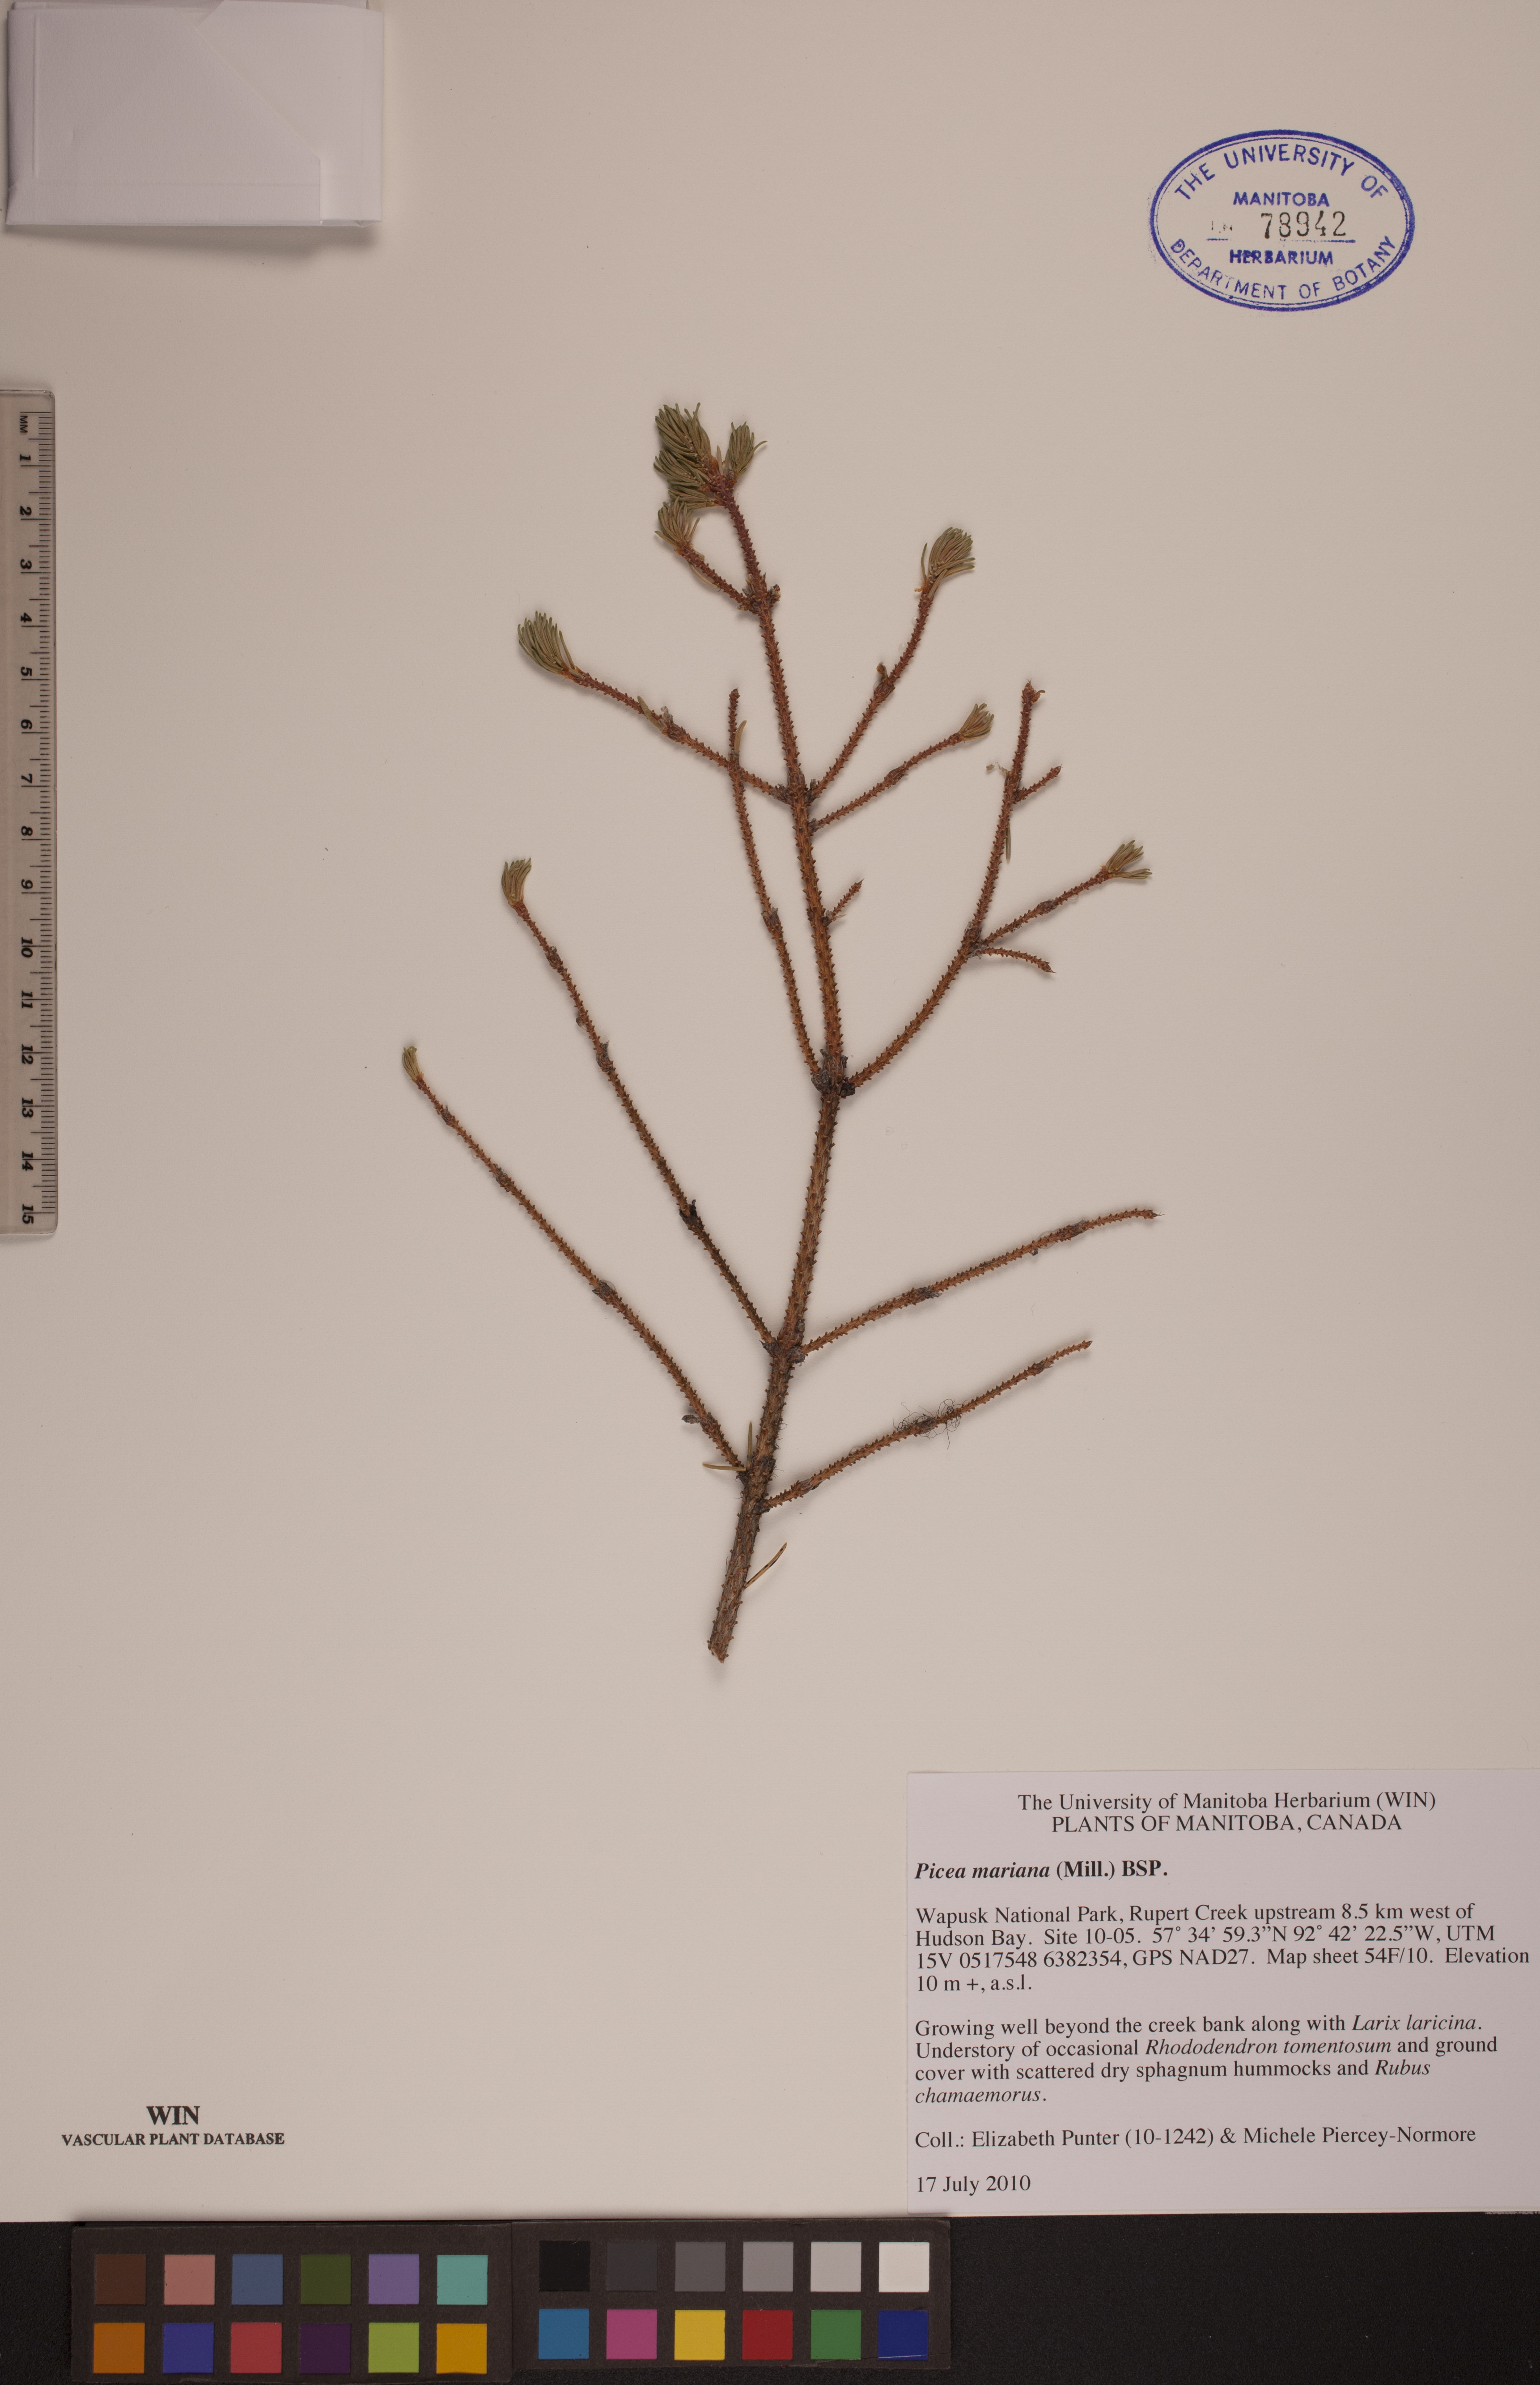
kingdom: Plantae
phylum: Tracheophyta
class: Pinopsida
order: Pinales
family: Pinaceae
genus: Picea
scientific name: Picea mariana
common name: Black spruce
